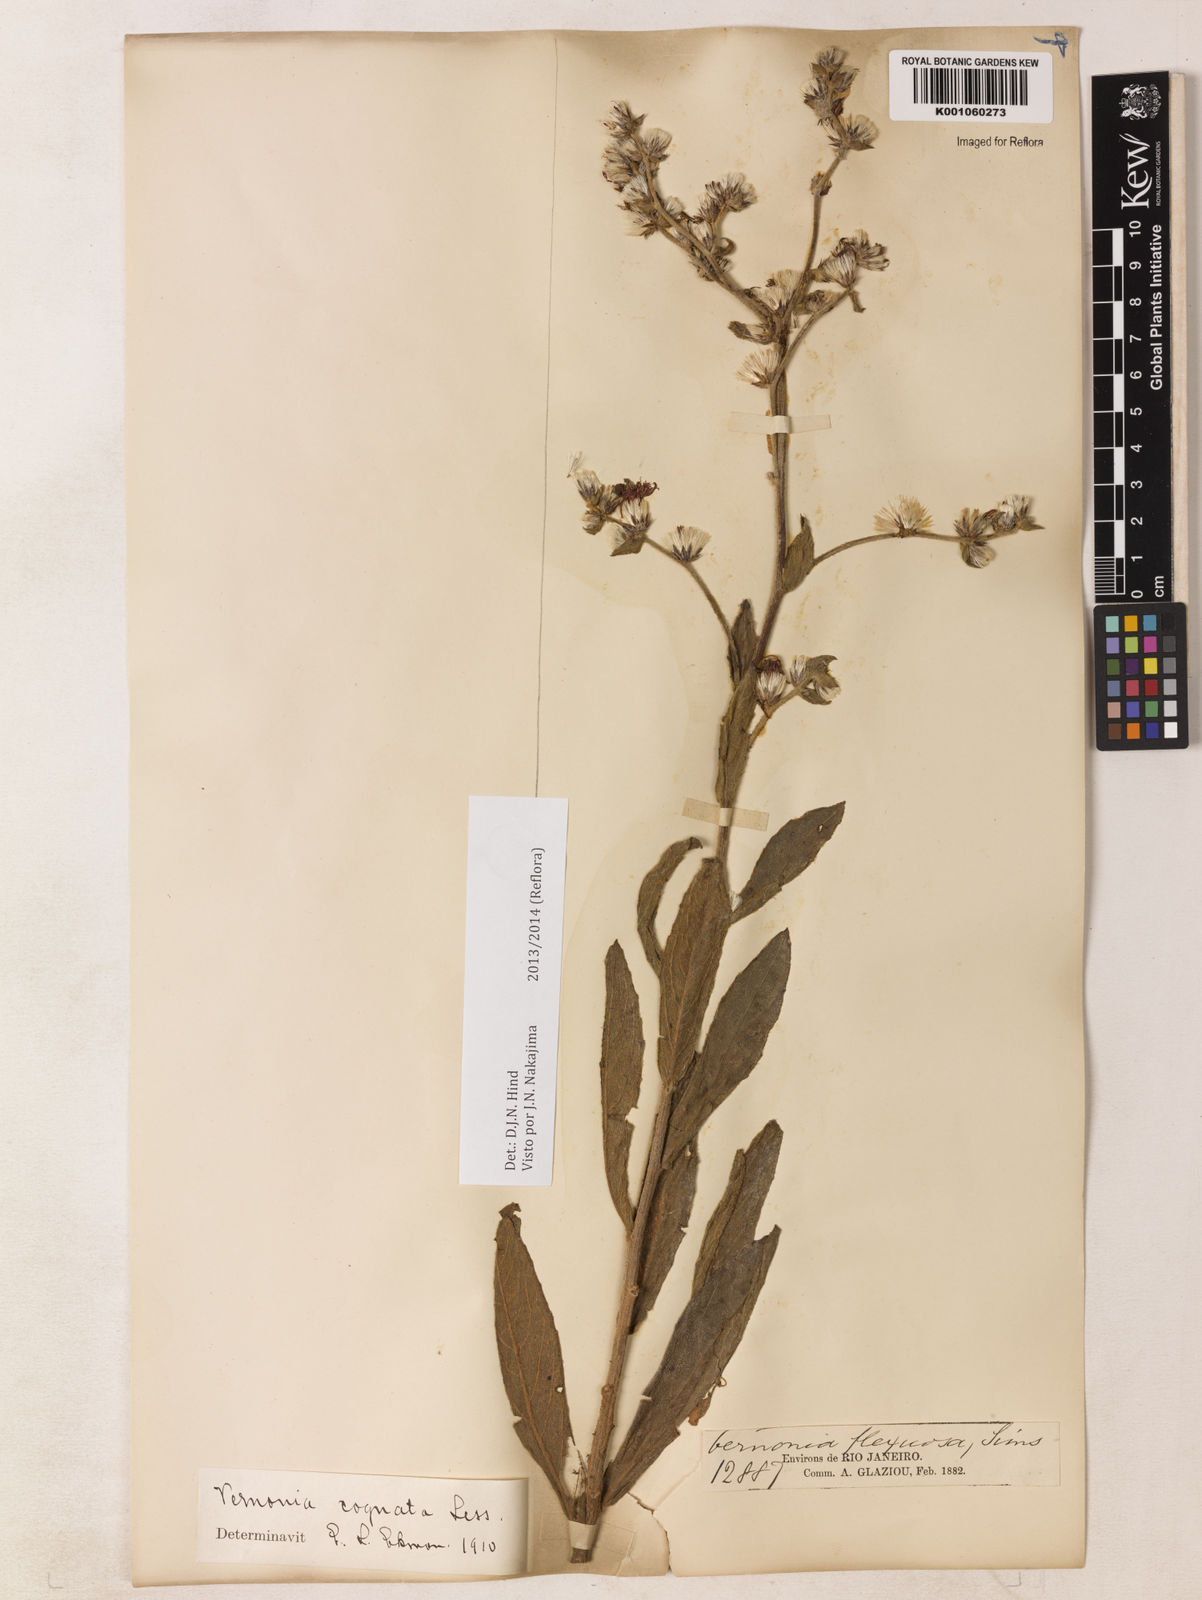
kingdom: Plantae
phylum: Tracheophyta
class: Magnoliopsida
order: Asterales
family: Asteraceae
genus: Chrysolaena
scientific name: Chrysolaena cognata
